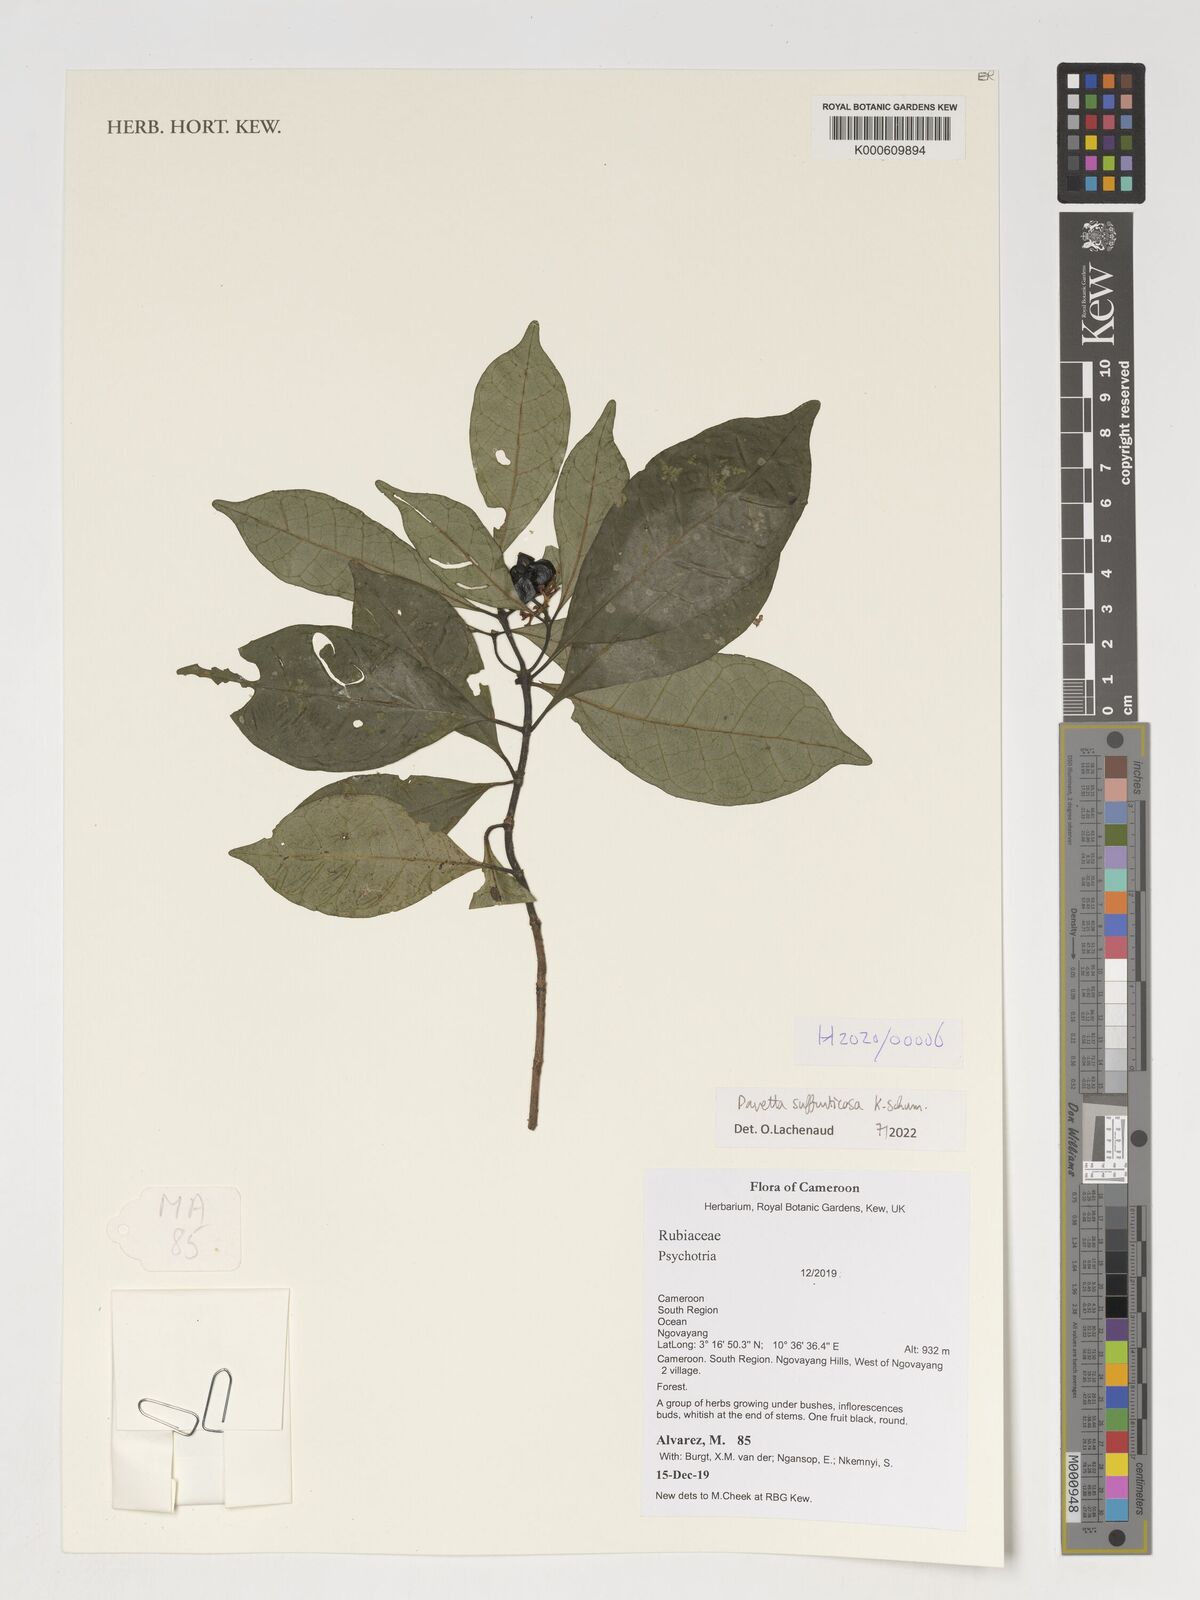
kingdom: Plantae
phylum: Tracheophyta
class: Magnoliopsida
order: Gentianales
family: Rubiaceae
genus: Pavetta
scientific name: Pavetta suffruticosa
